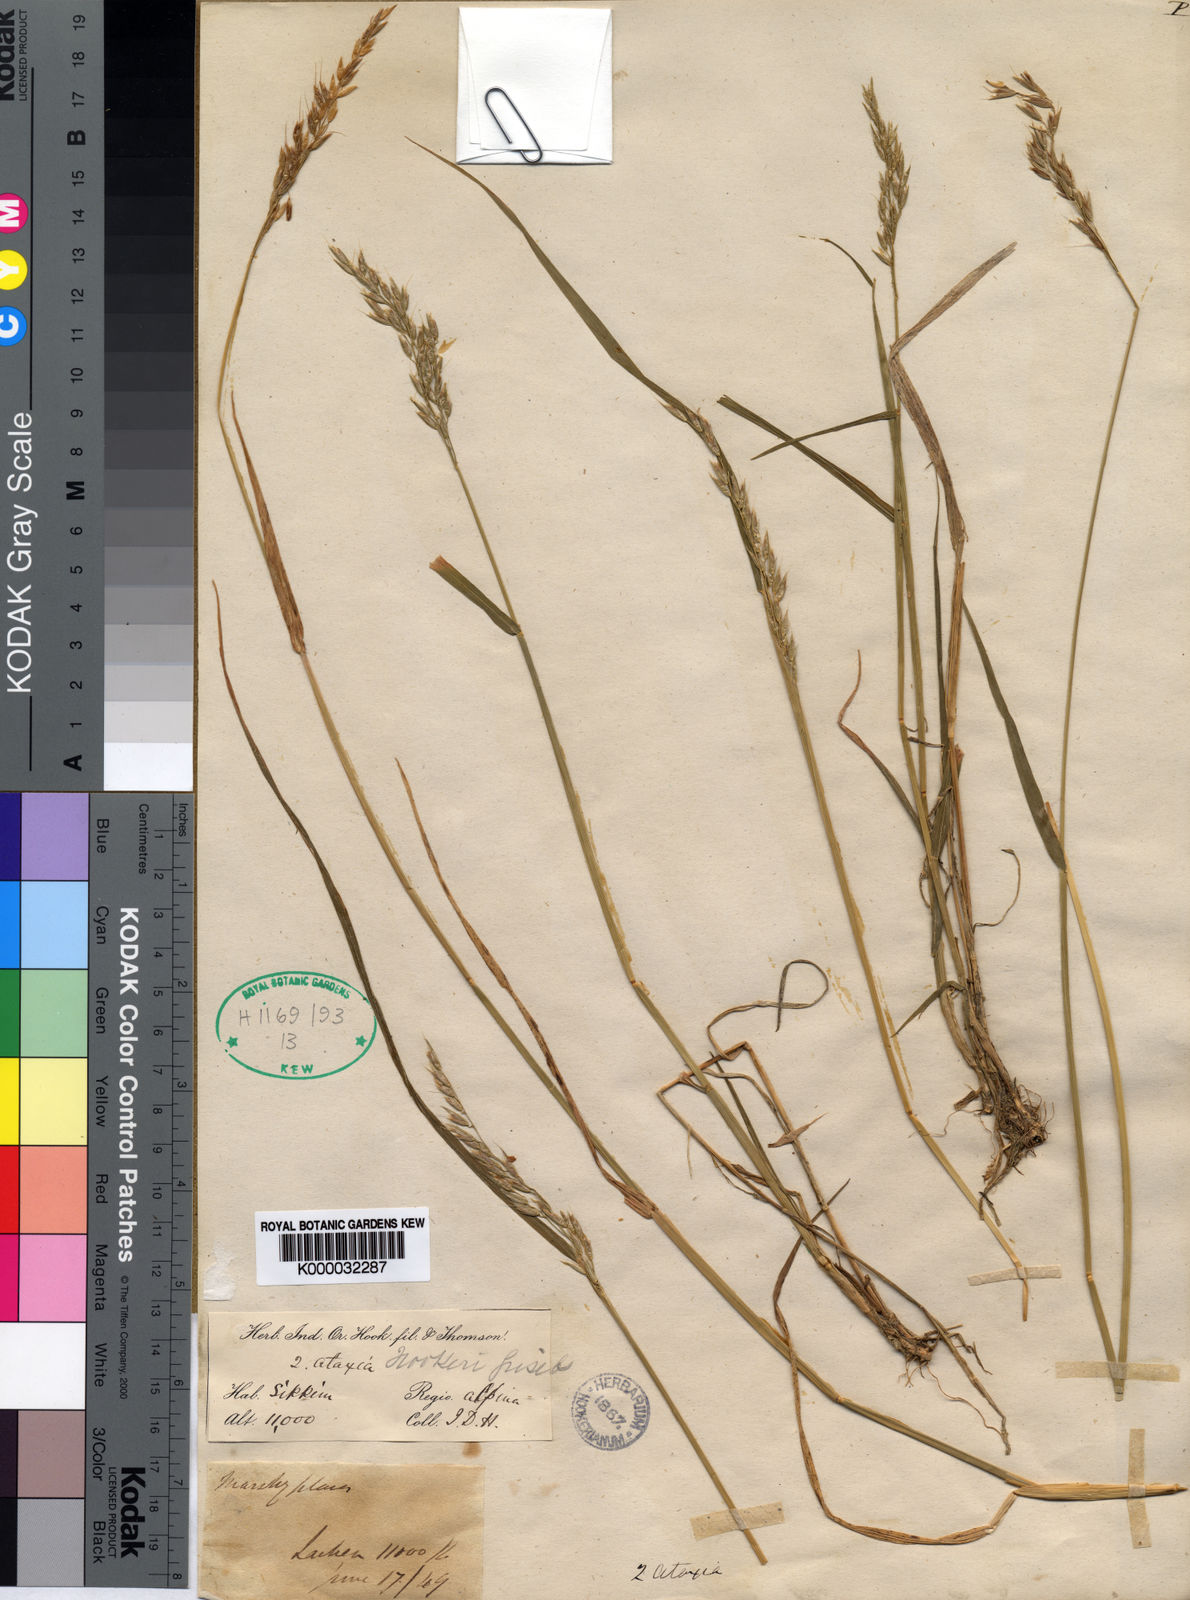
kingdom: Plantae
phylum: Tracheophyta
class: Liliopsida
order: Poales
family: Poaceae
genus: Anthoxanthum
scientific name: Anthoxanthum hookeri
